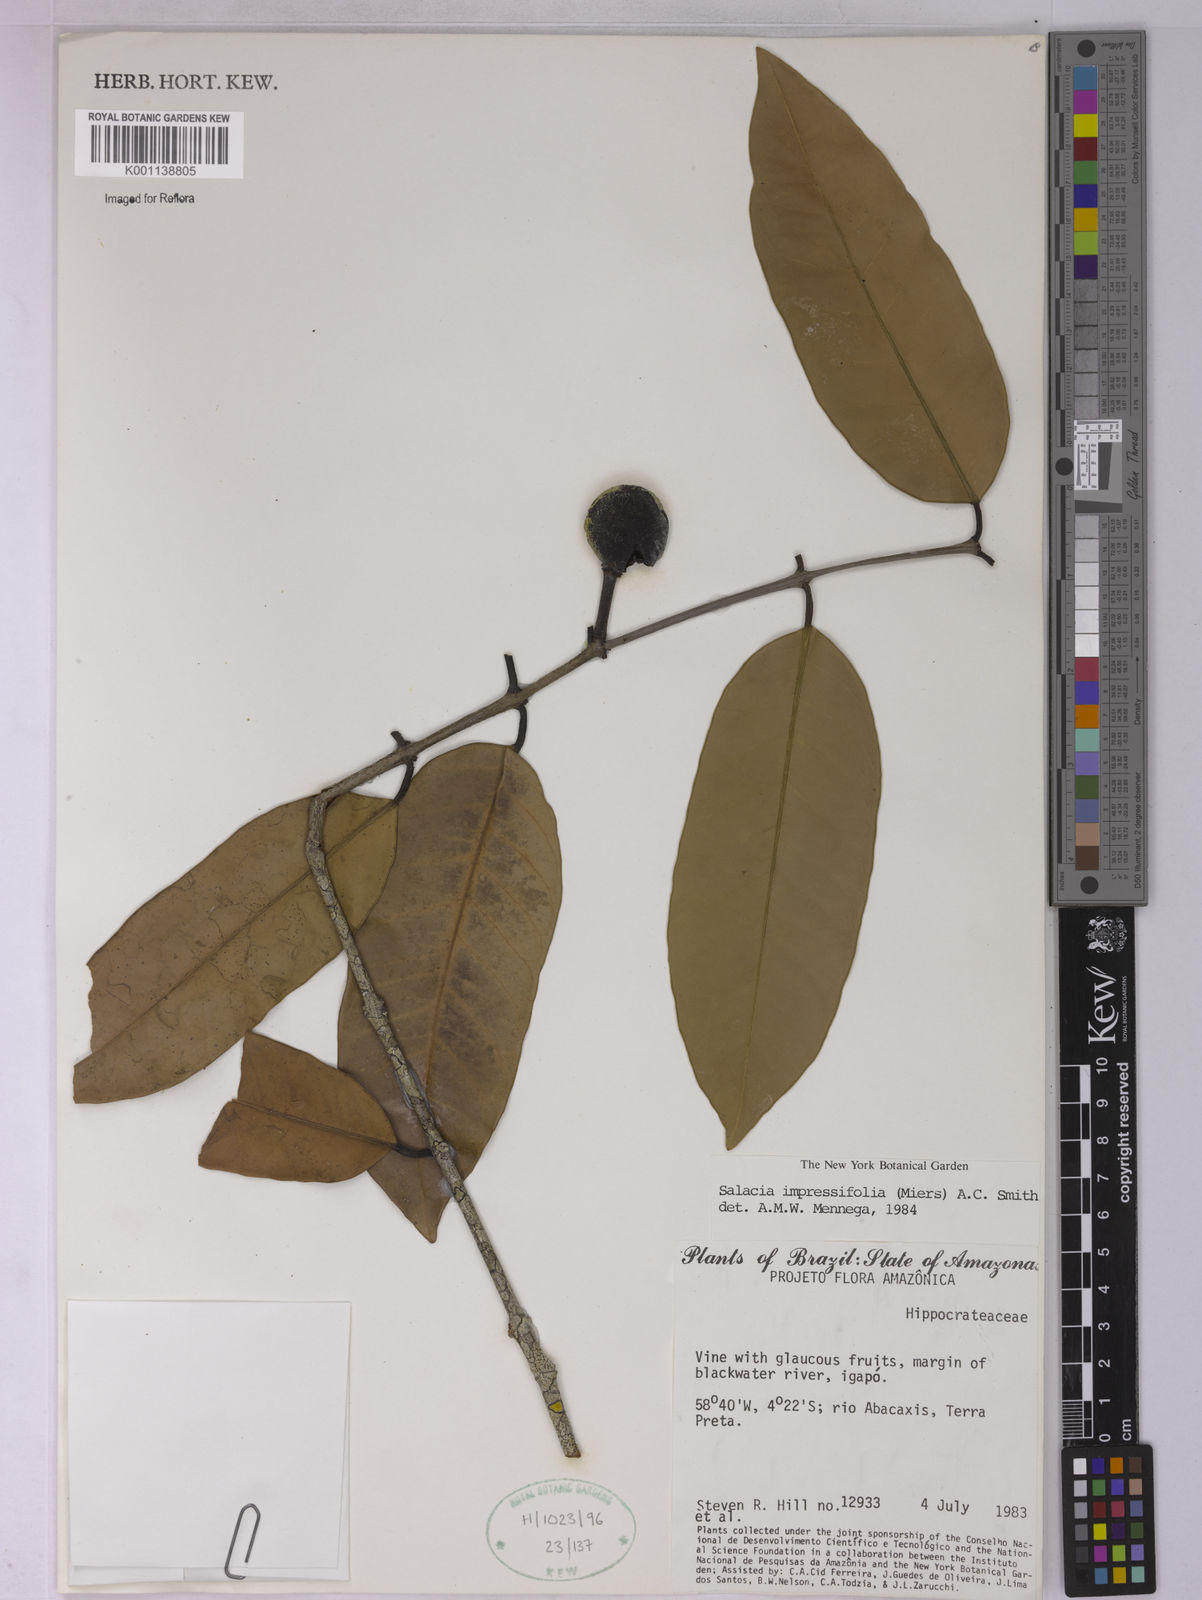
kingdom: Plantae
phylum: Tracheophyta
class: Magnoliopsida
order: Celastrales
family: Celastraceae
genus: Salacia
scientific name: Salacia impressifolia
